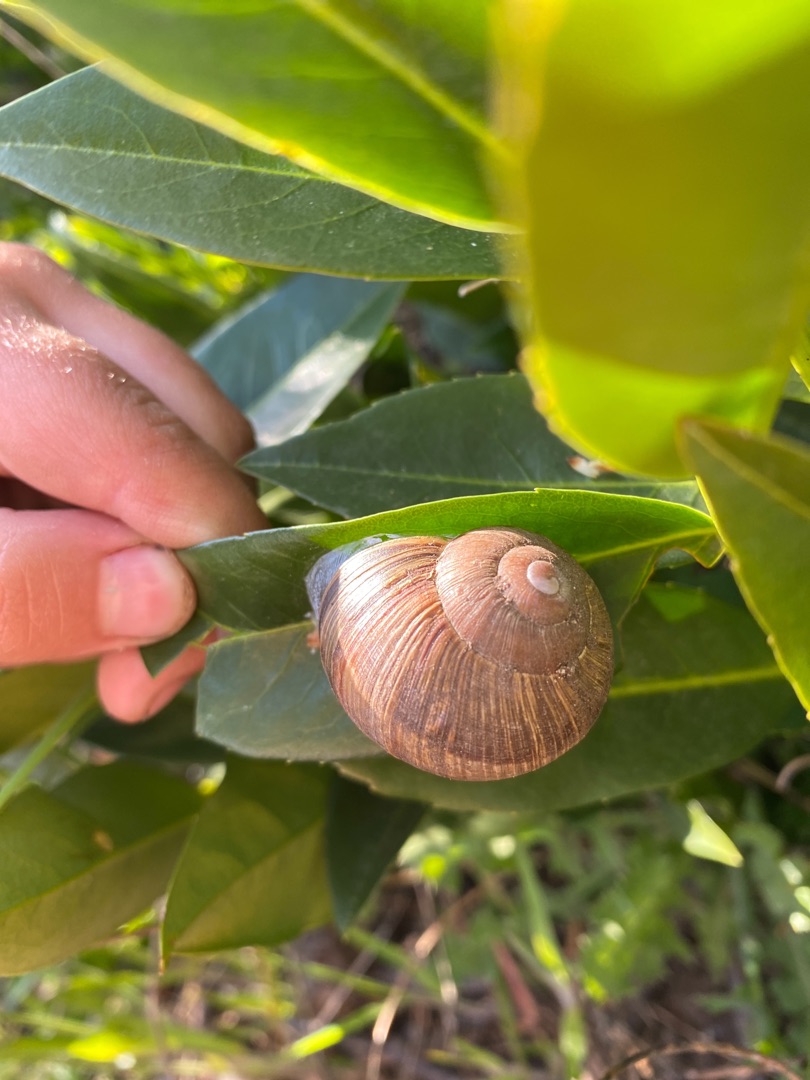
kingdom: Animalia
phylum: Mollusca
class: Gastropoda
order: Stylommatophora
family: Helicidae
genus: Helix
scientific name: Helix pomatia
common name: Vinbjergsnegl
